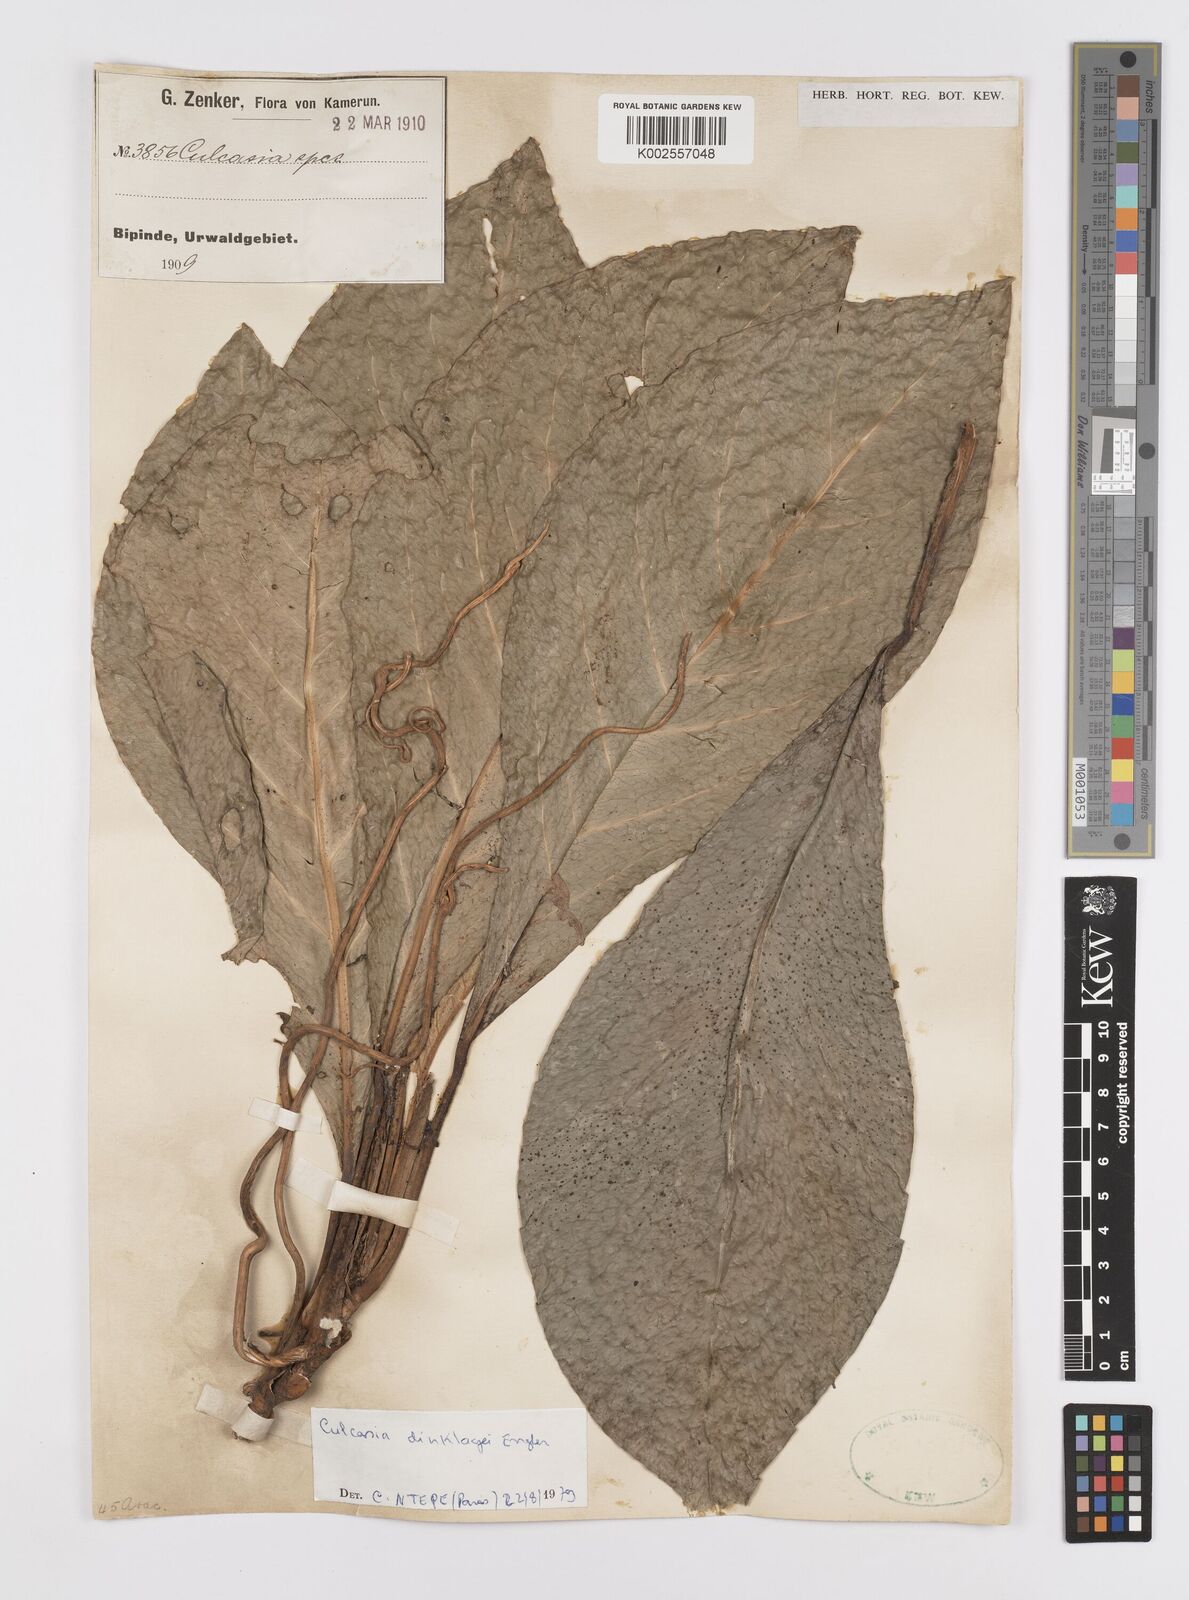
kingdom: Plantae
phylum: Tracheophyta
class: Liliopsida
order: Alismatales
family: Araceae
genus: Culcasia
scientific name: Culcasia dinklagei
